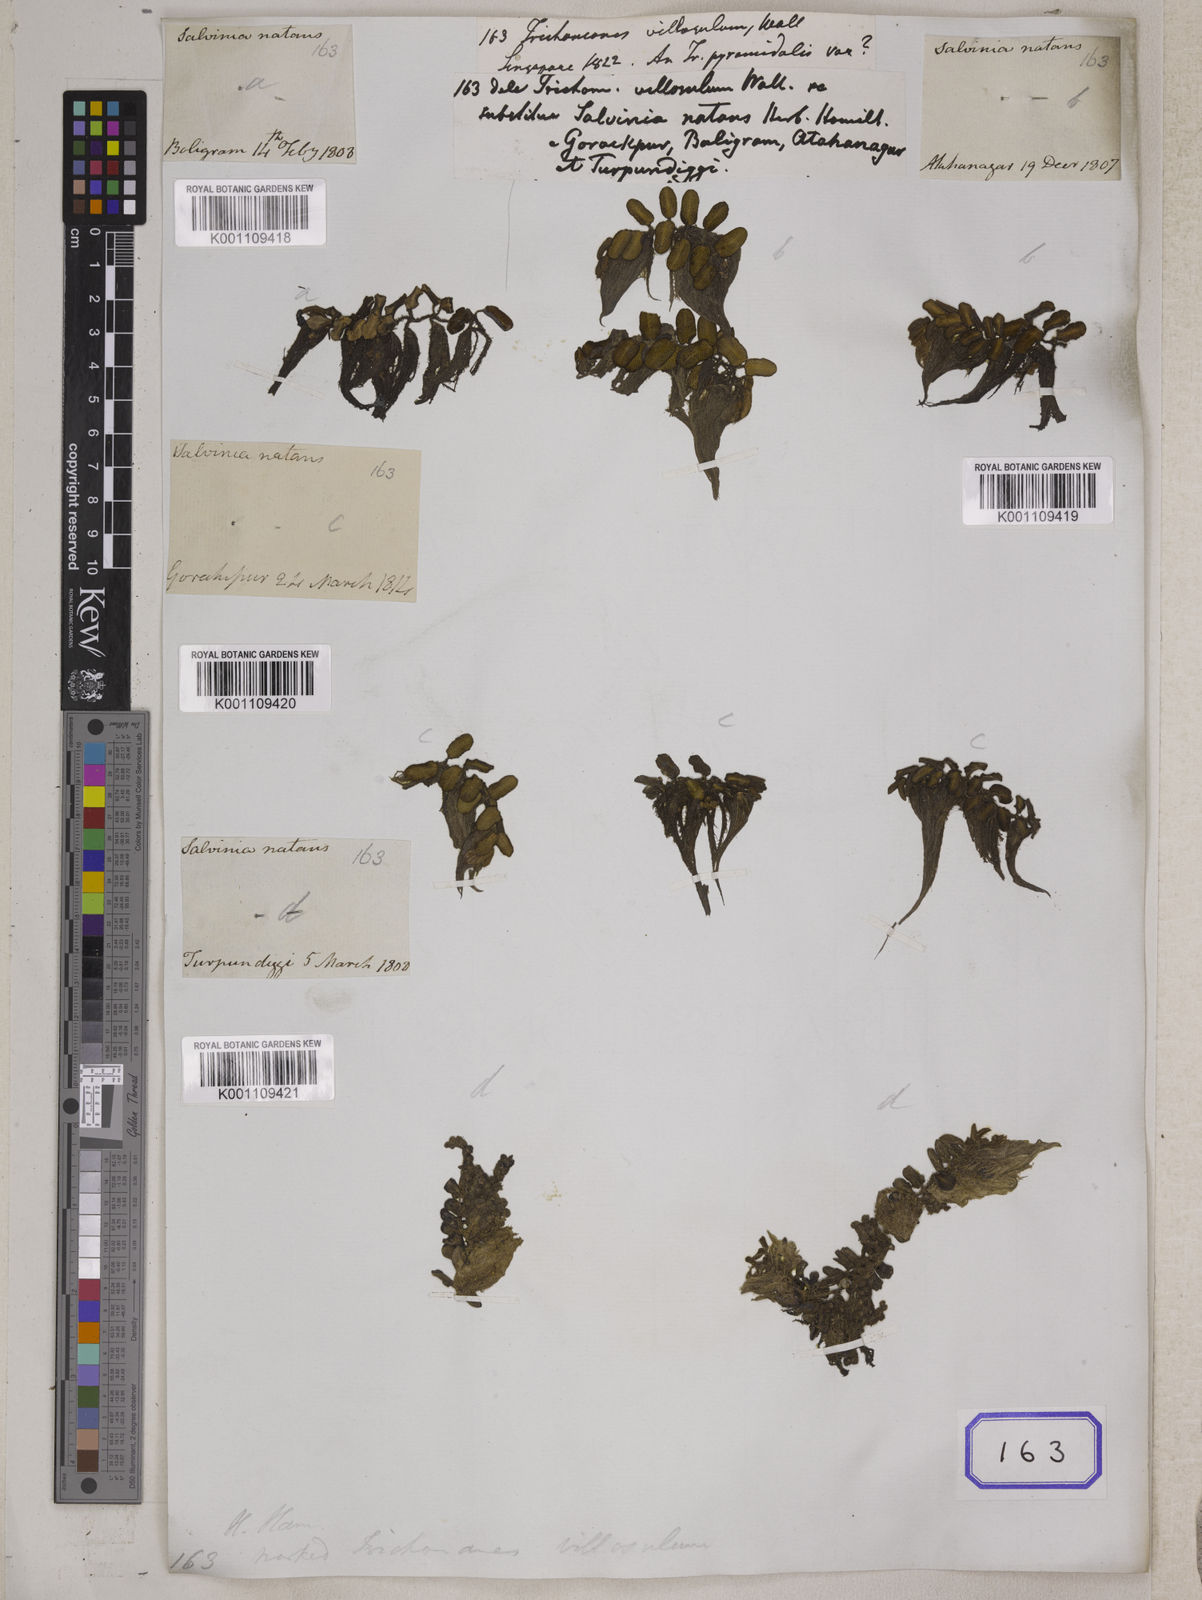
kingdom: Plantae
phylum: Tracheophyta
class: Polypodiopsida
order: Salviniales
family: Salviniaceae
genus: Salvinia
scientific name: Salvinia natans
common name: Floating fern
